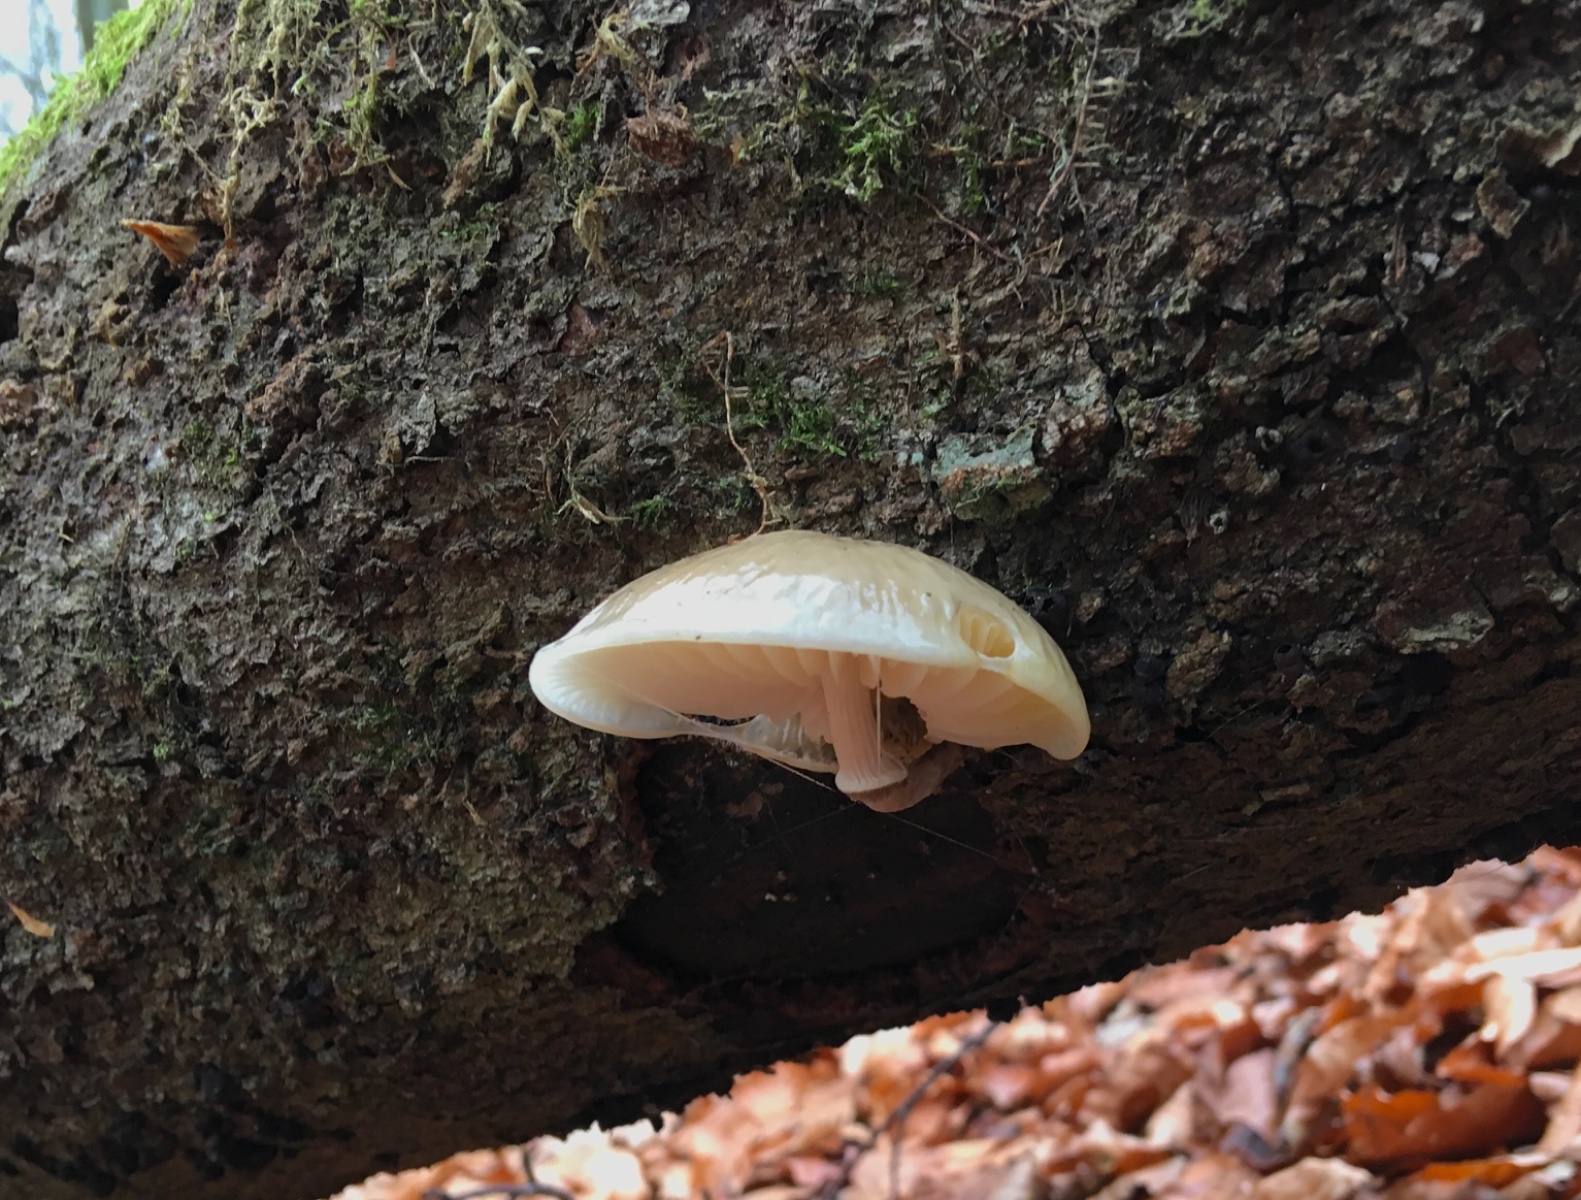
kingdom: Fungi
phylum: Basidiomycota
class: Agaricomycetes
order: Agaricales
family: Physalacriaceae
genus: Mucidula
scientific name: Mucidula mucida
